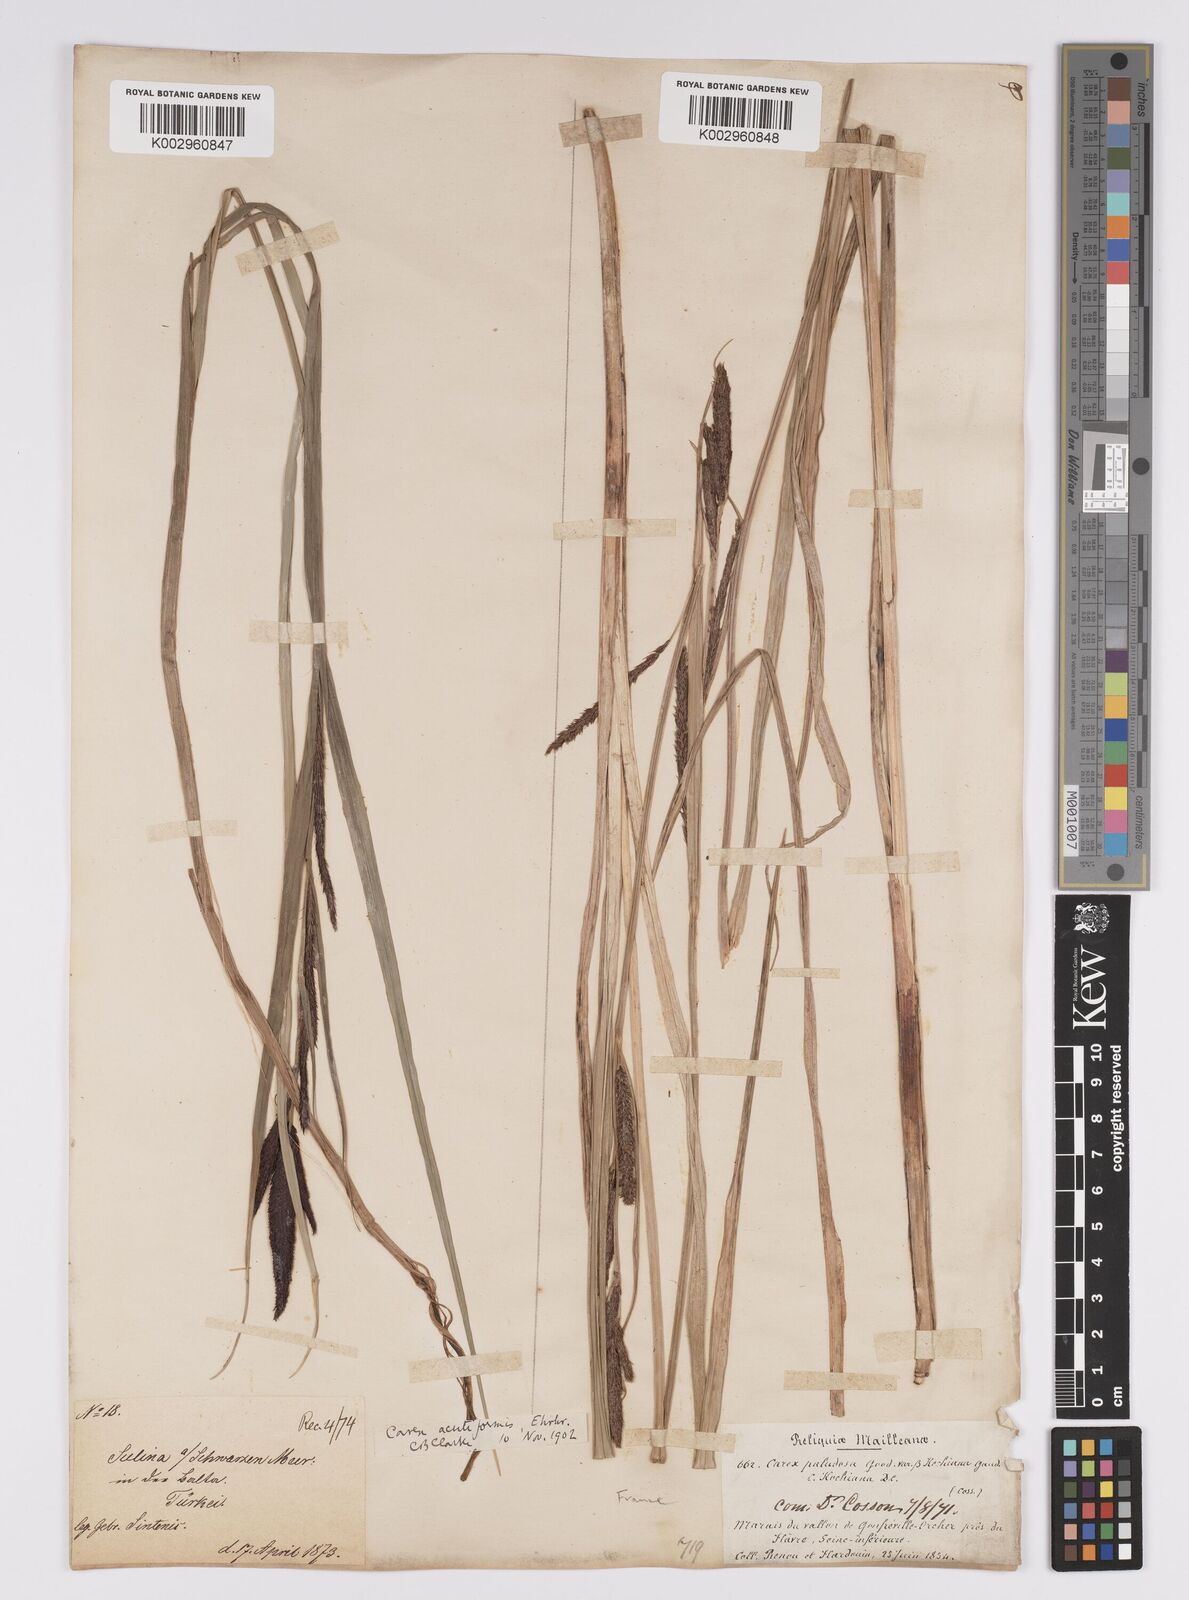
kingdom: Plantae
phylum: Tracheophyta
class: Liliopsida
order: Poales
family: Cyperaceae
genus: Carex
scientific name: Carex acutiformis
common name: Lesser pond-sedge
